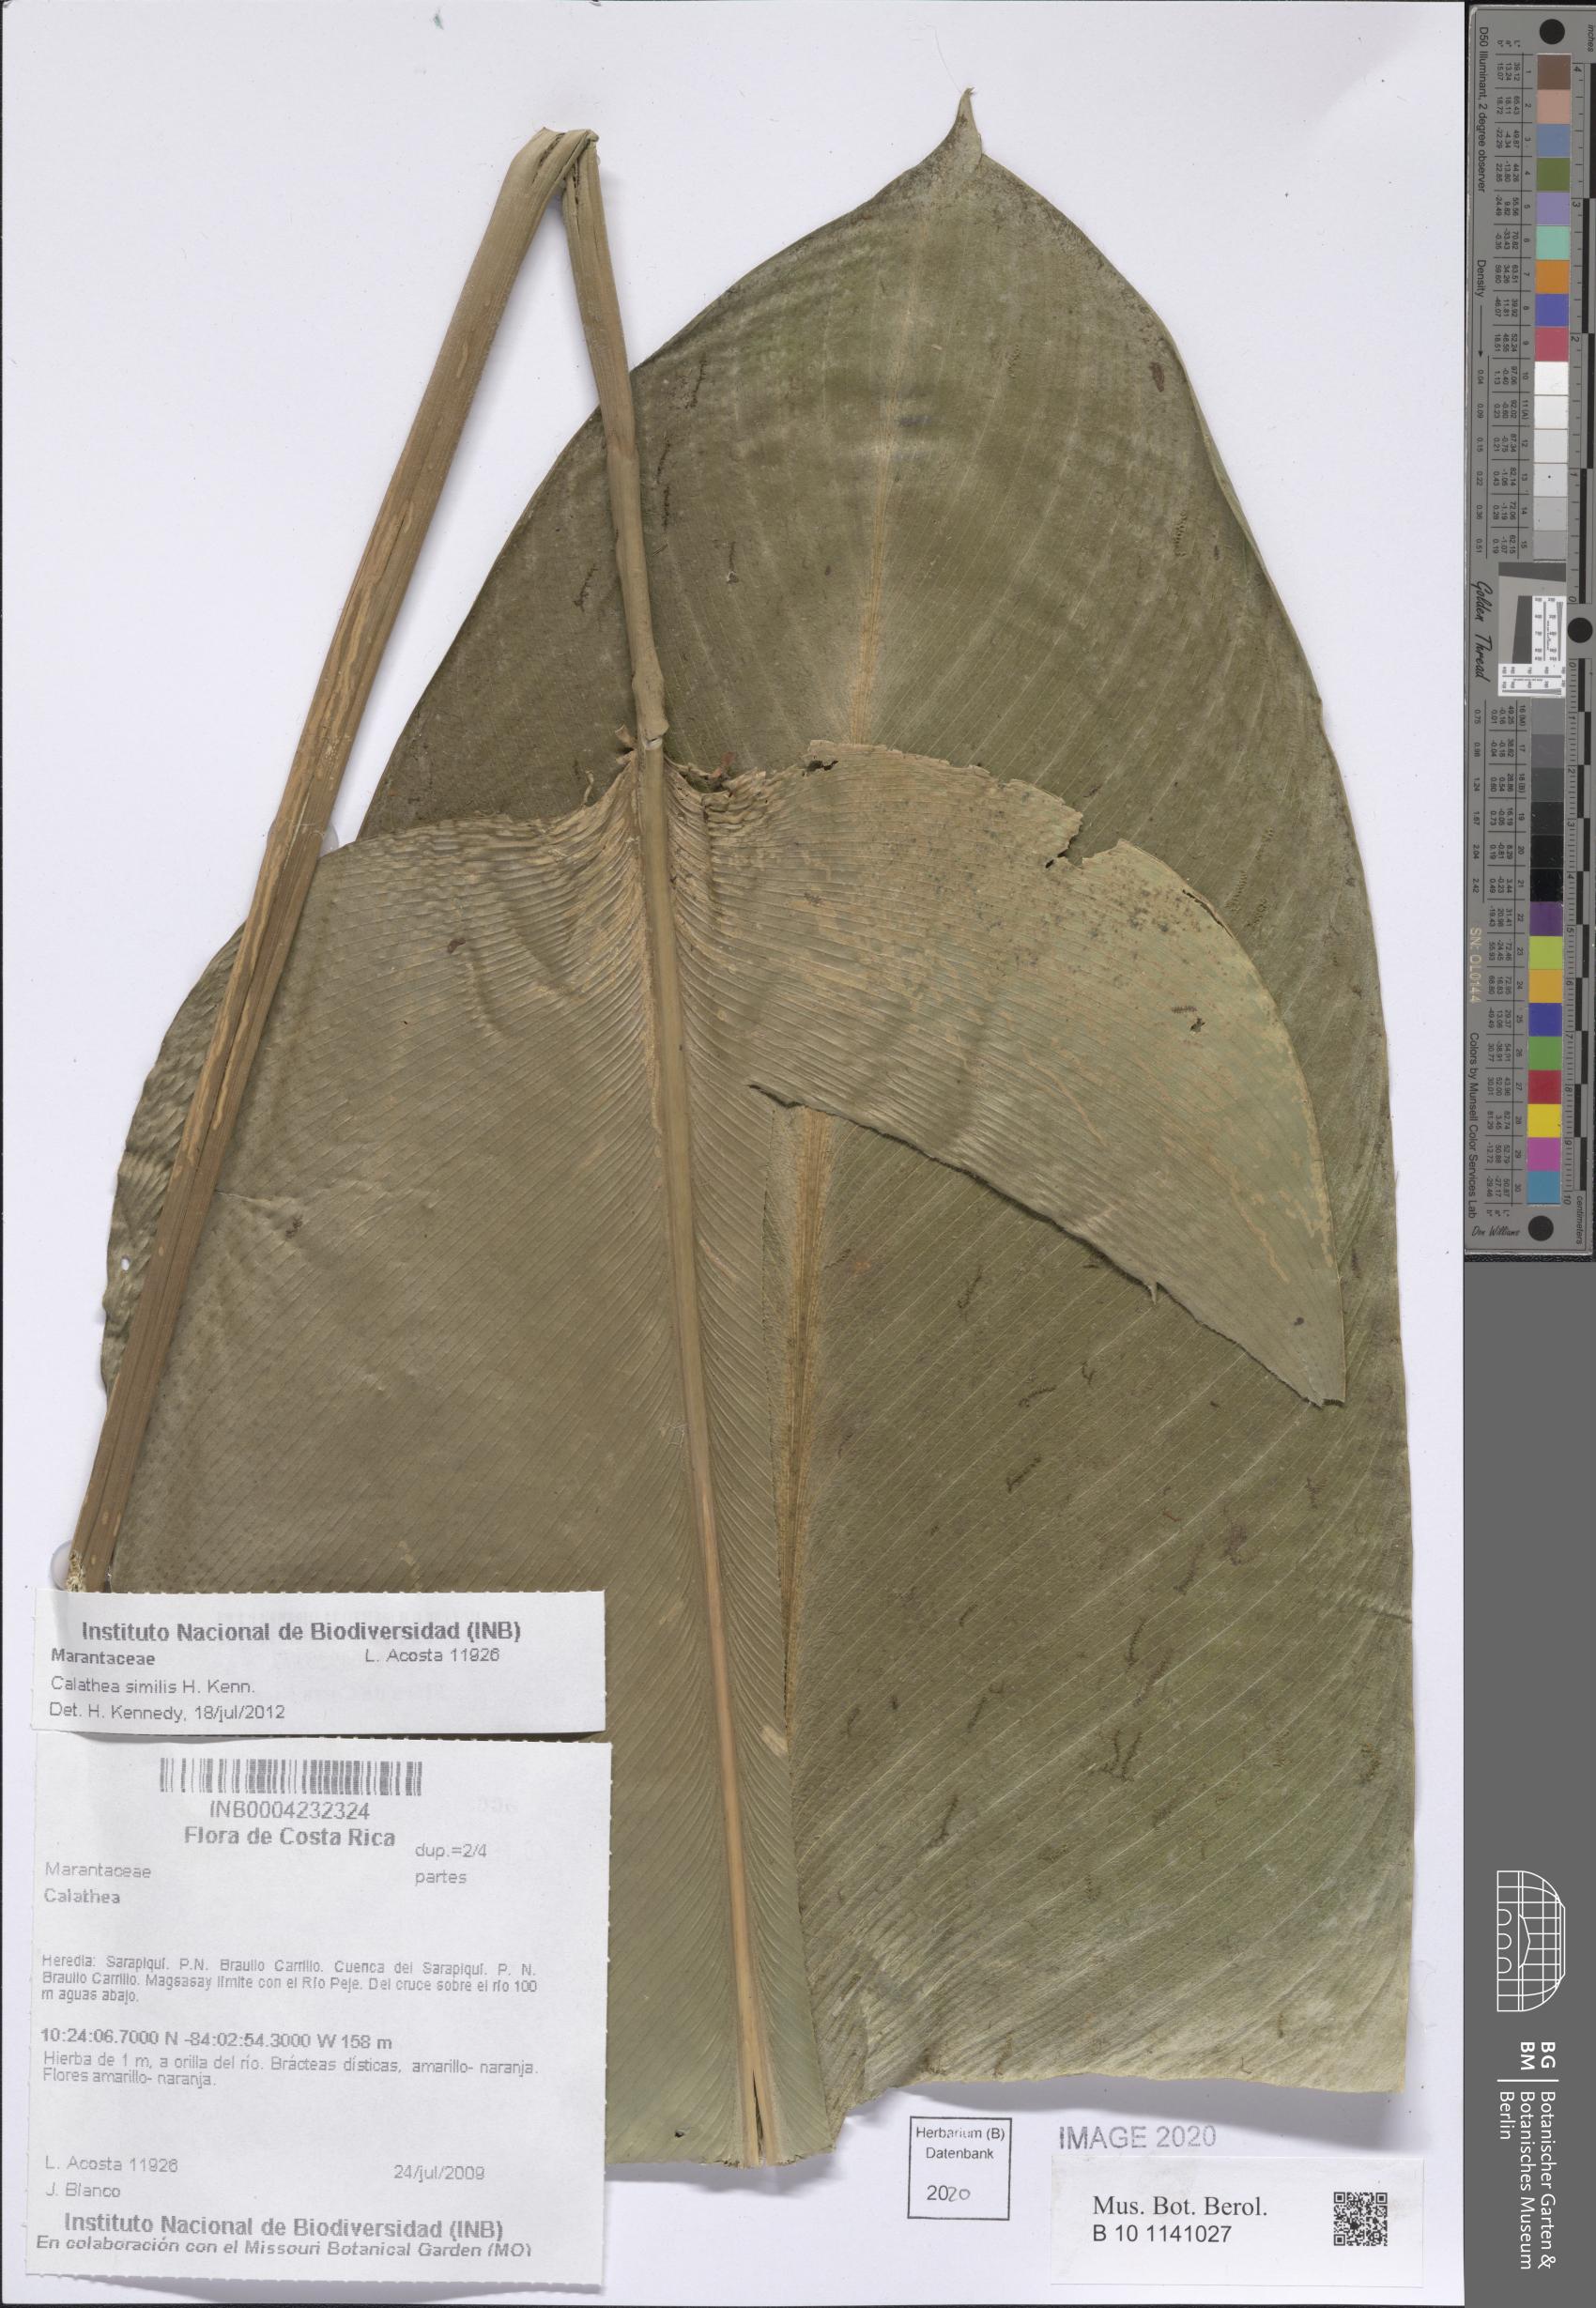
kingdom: Plantae
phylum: Tracheophyta
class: Liliopsida
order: Zingiberales
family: Marantaceae
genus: Calathea
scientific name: Calathea similis
